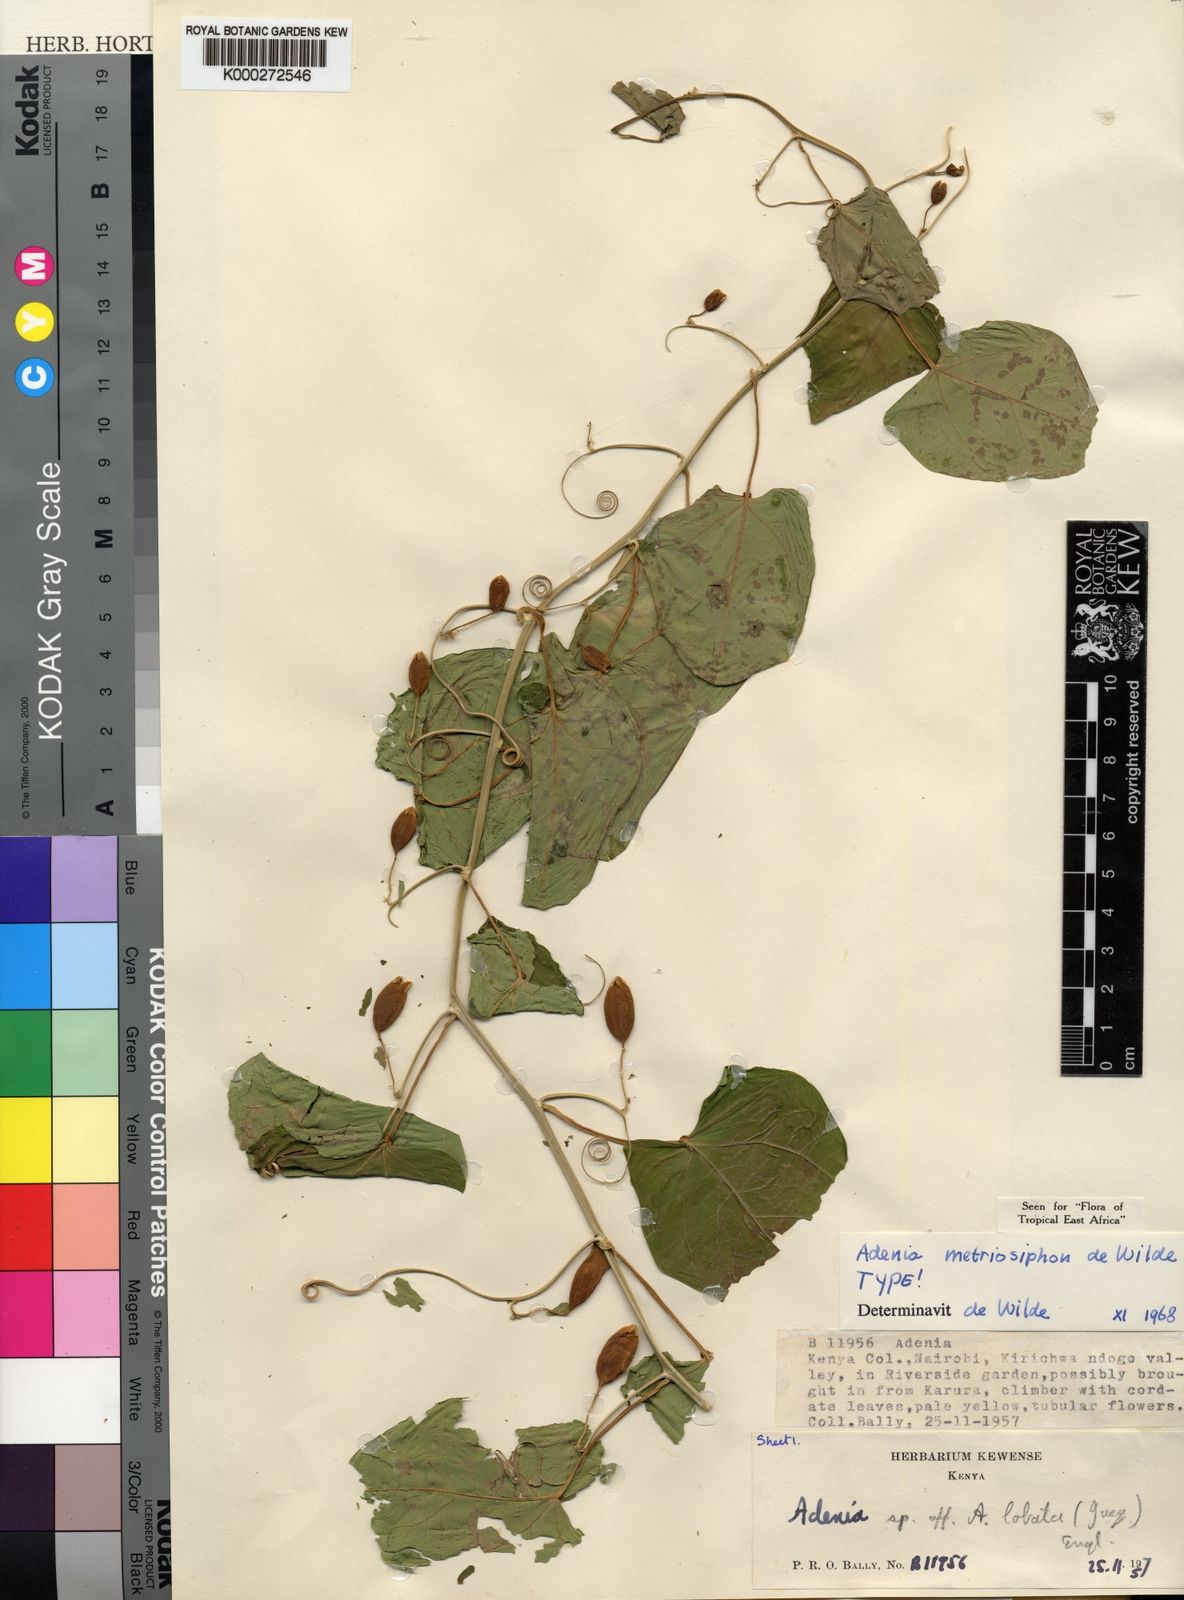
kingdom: Plantae
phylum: Tracheophyta
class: Magnoliopsida
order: Malpighiales
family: Passifloraceae
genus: Adenia
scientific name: Adenia
